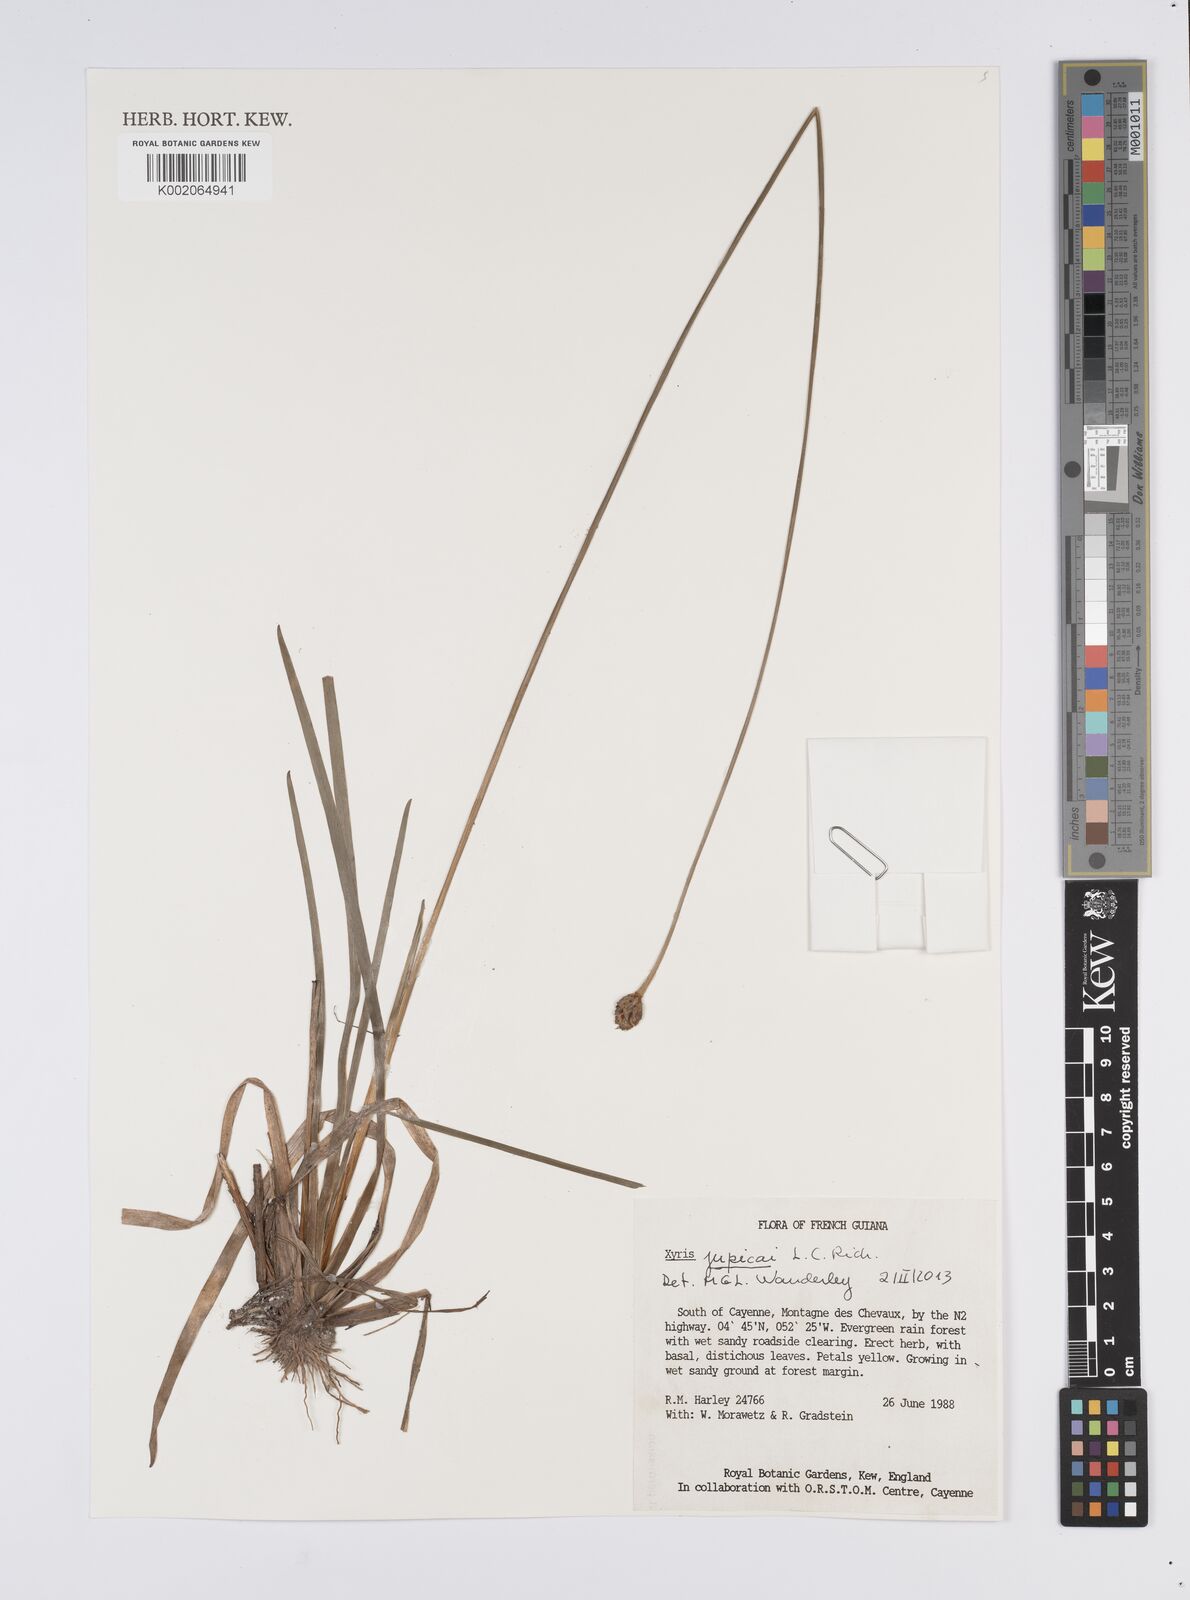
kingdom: Plantae
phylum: Tracheophyta
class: Liliopsida
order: Poales
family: Xyridaceae
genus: Xyris
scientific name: Xyris jupicai
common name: Richard's yelloweyed grass
